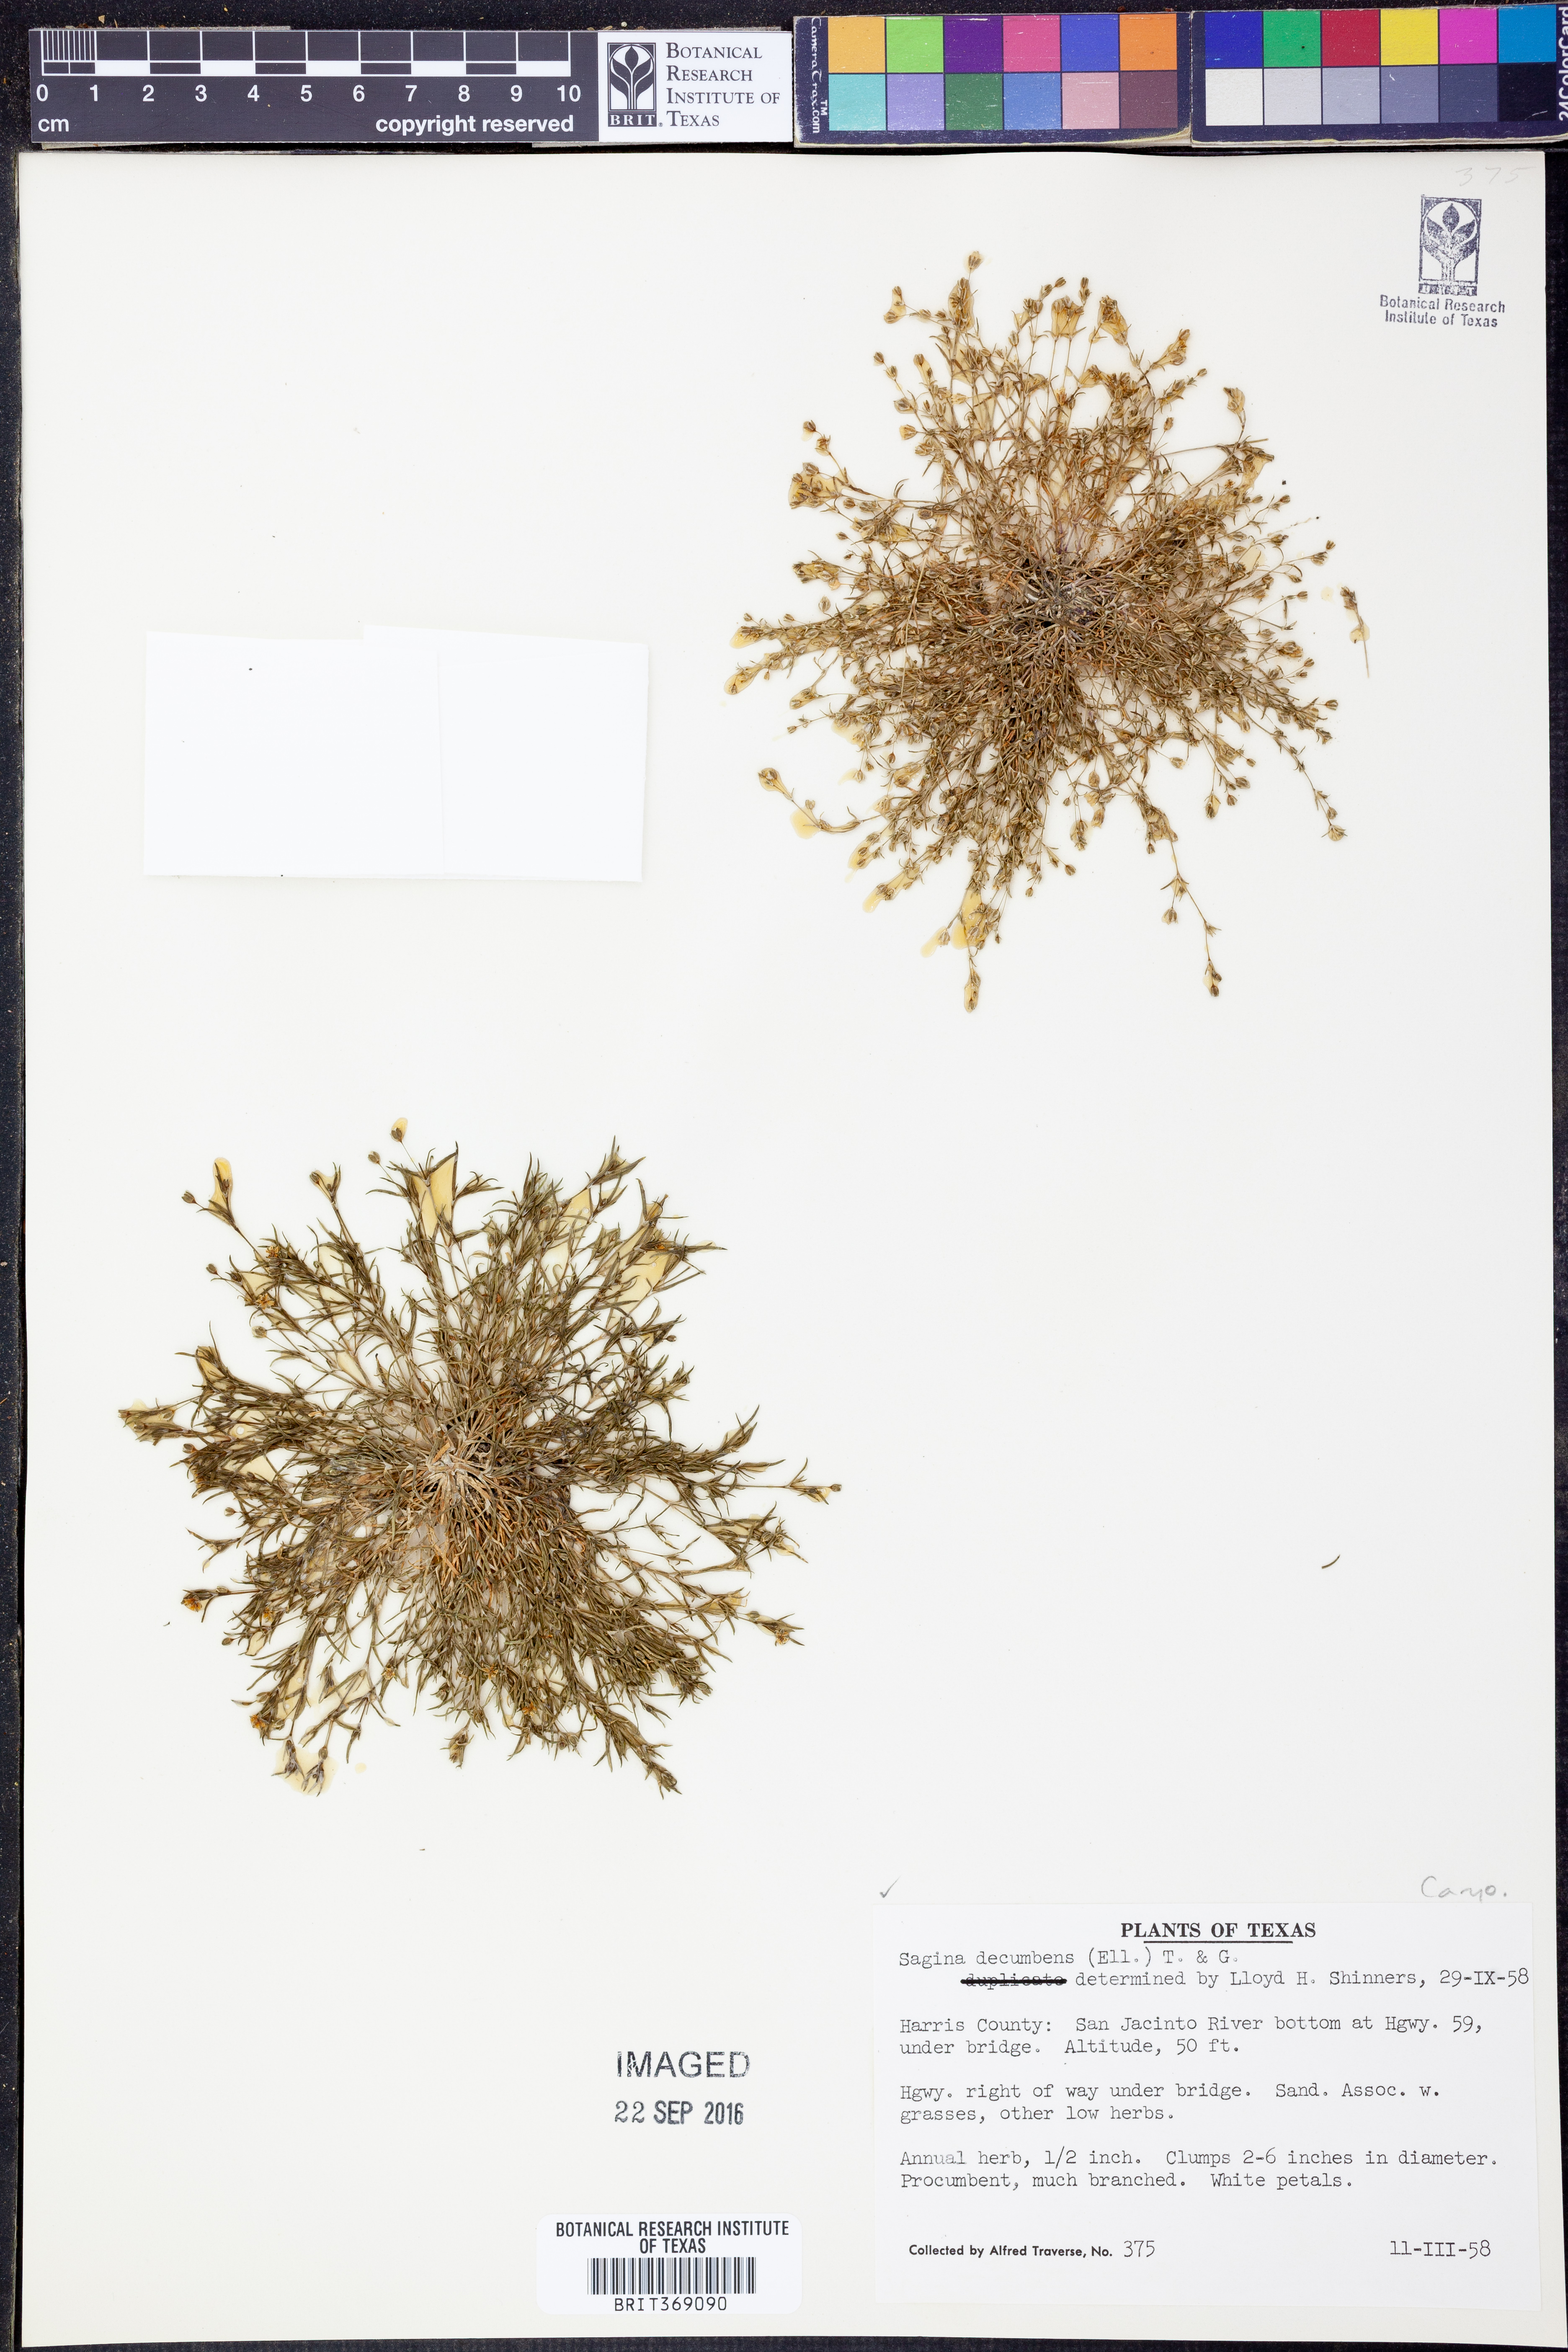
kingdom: Plantae
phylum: Tracheophyta
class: Magnoliopsida
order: Caryophyllales
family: Caryophyllaceae
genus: Sagina
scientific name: Sagina decumbens
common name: Decumbent pearlwort
